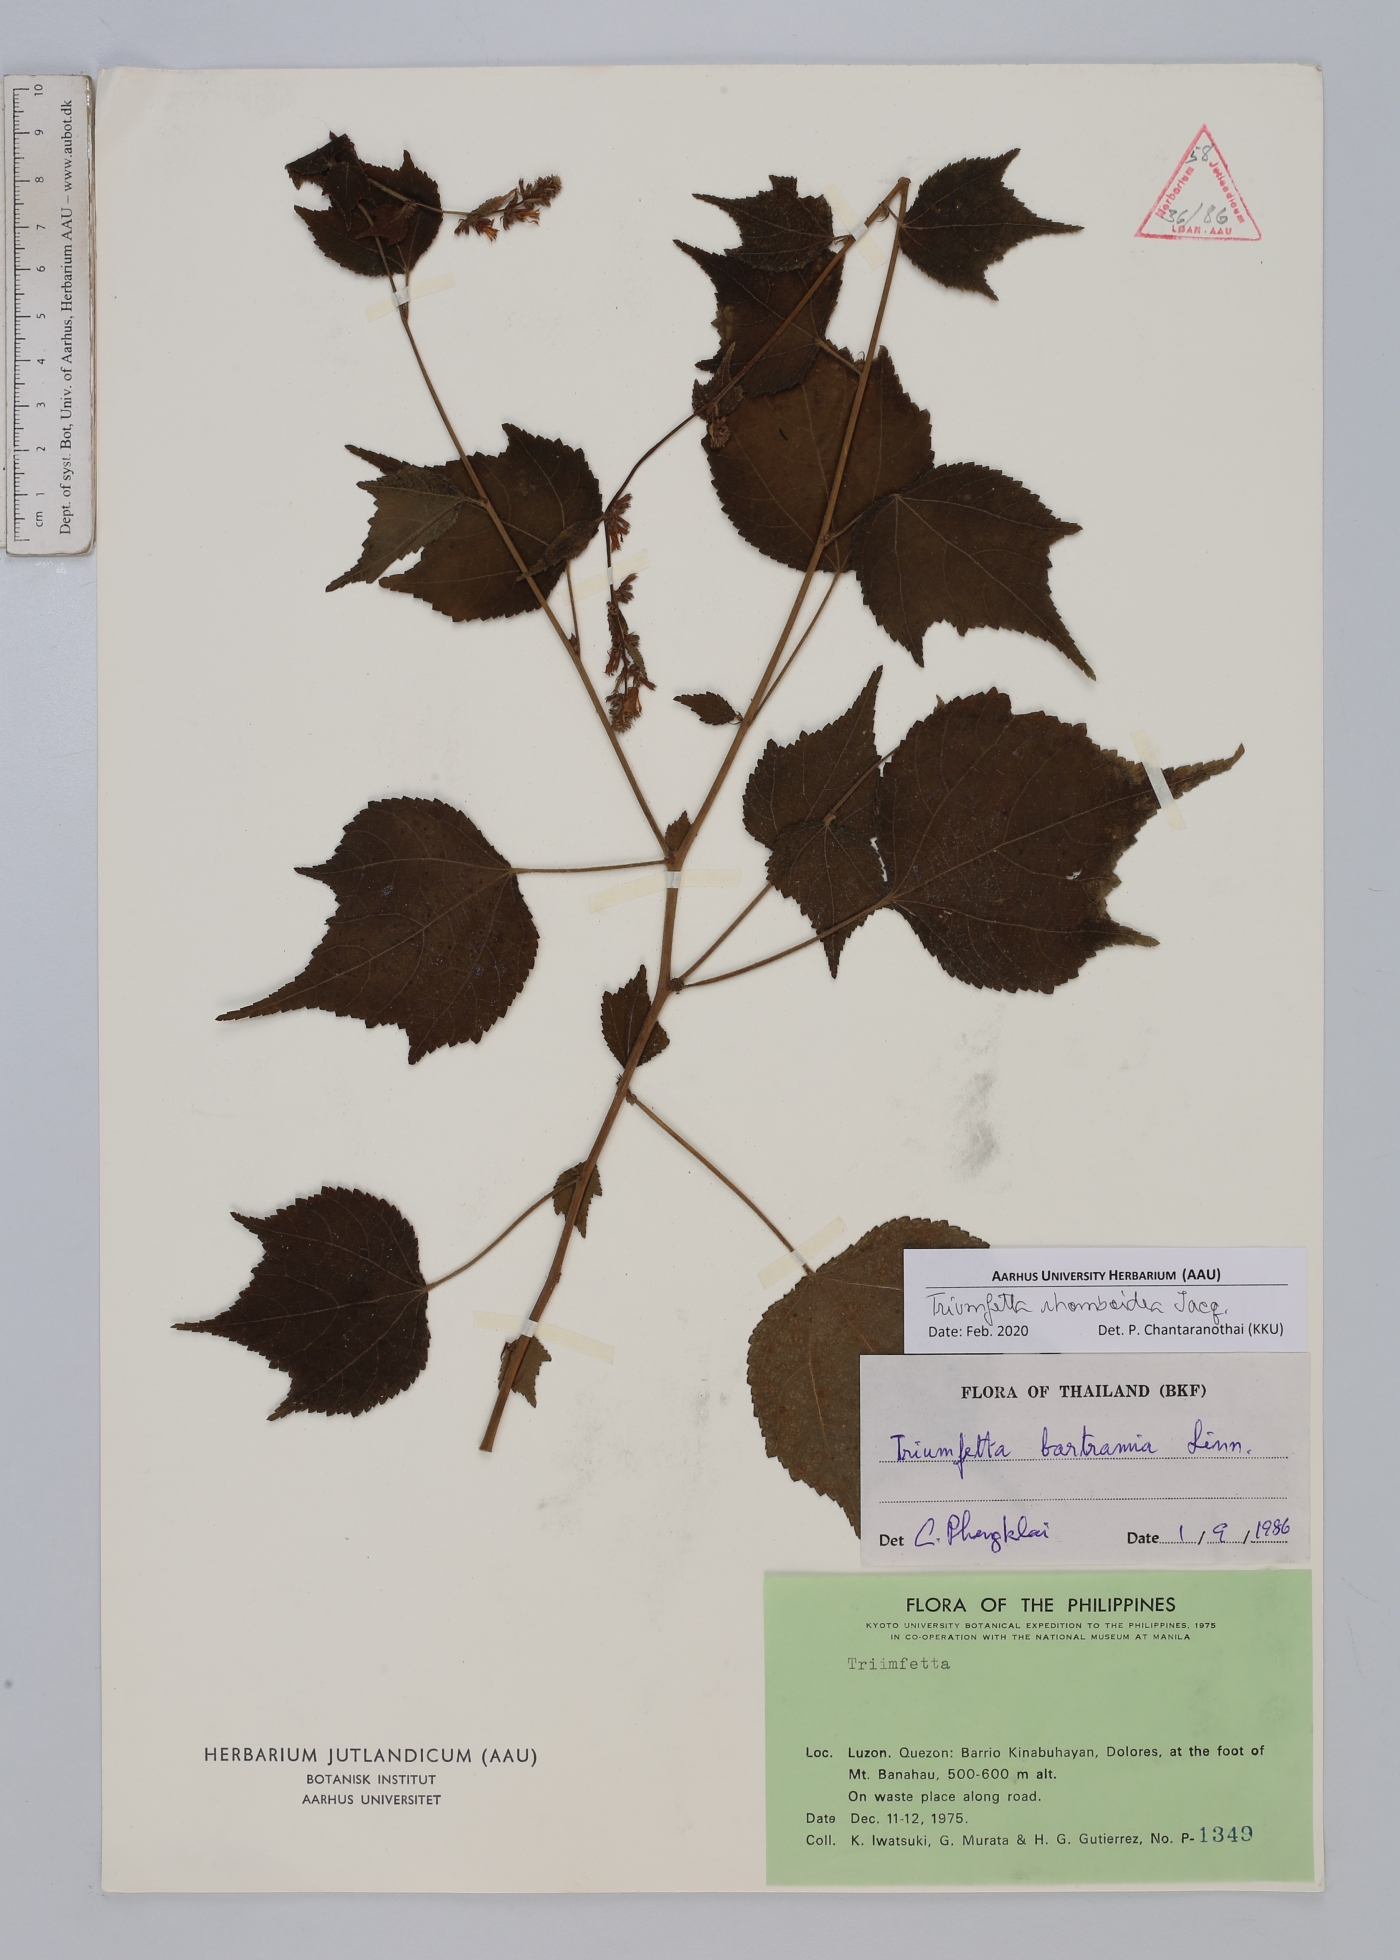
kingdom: Plantae
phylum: Tracheophyta
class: Magnoliopsida
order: Malvales
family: Malvaceae
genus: Triumfetta
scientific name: Triumfetta rhomboidea
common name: Diamond burbark
